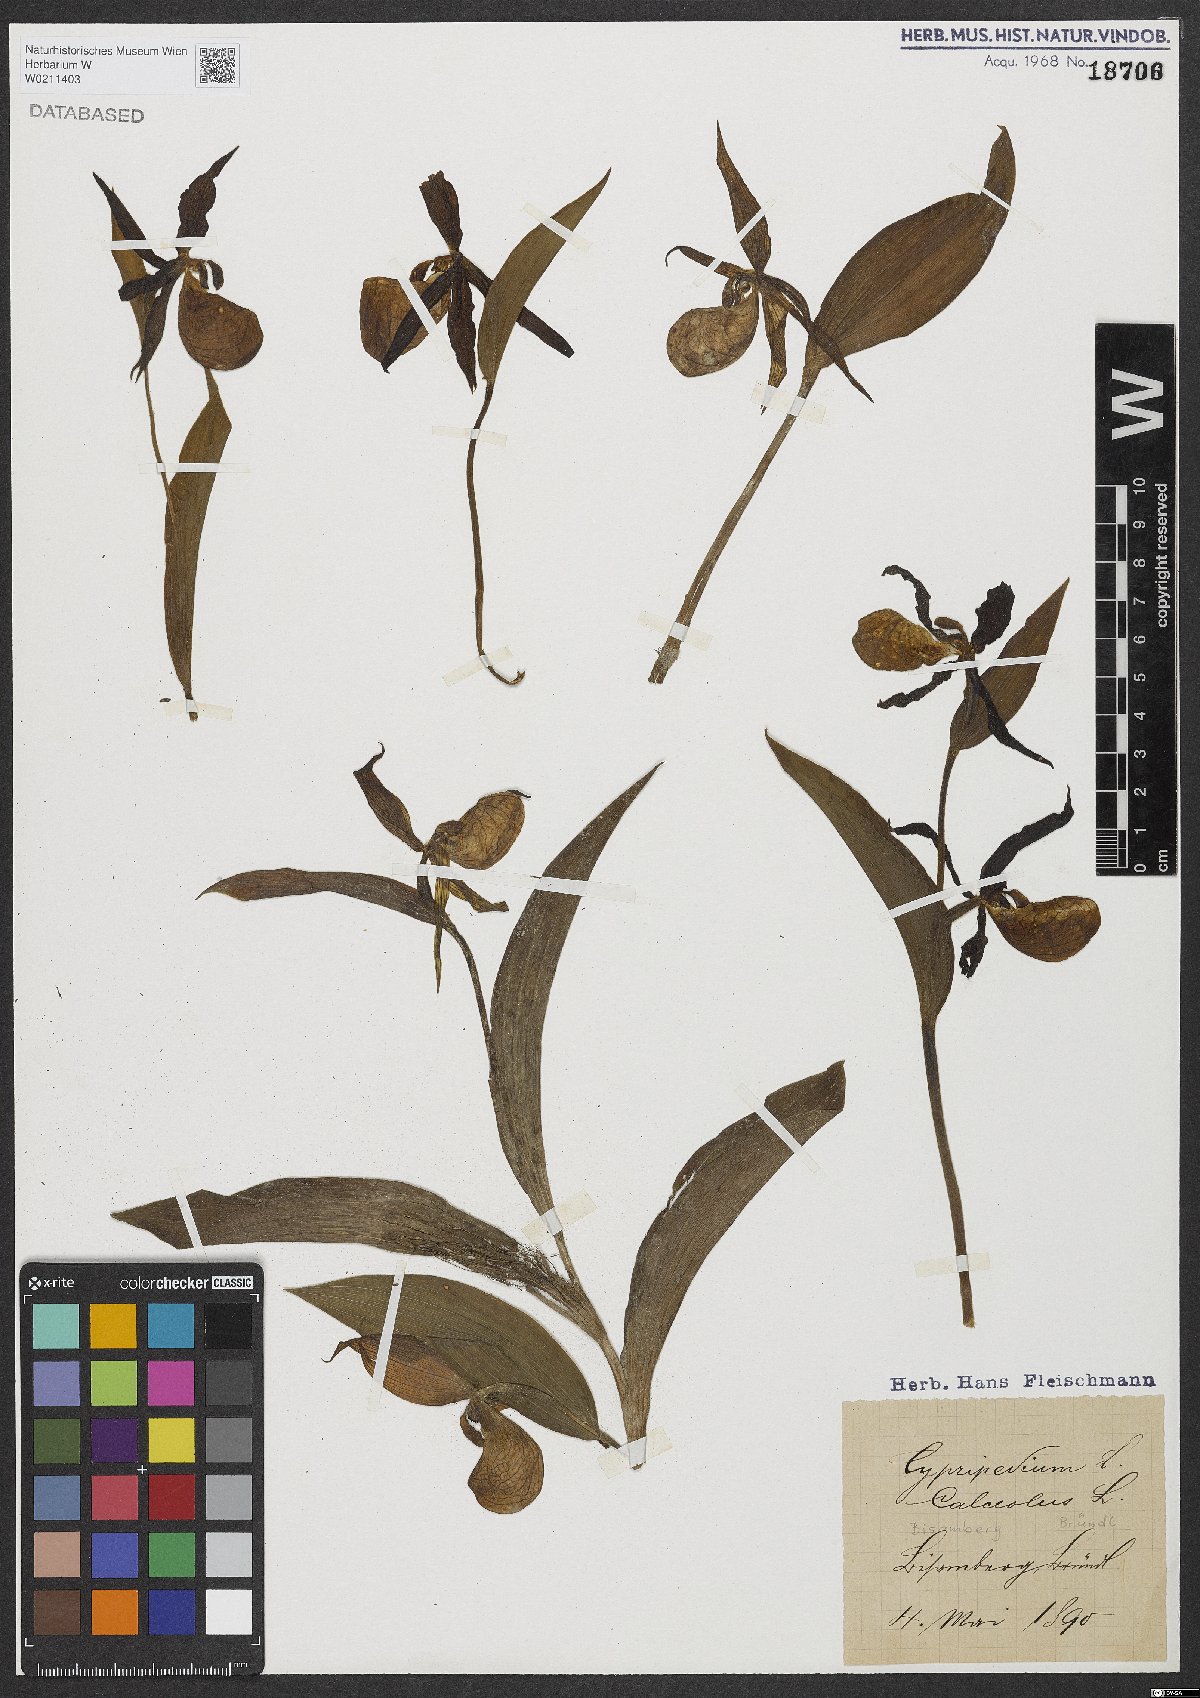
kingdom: Plantae
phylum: Tracheophyta
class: Liliopsida
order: Asparagales
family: Orchidaceae
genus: Cypripedium
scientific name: Cypripedium calceolus
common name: Lady's-slipper
